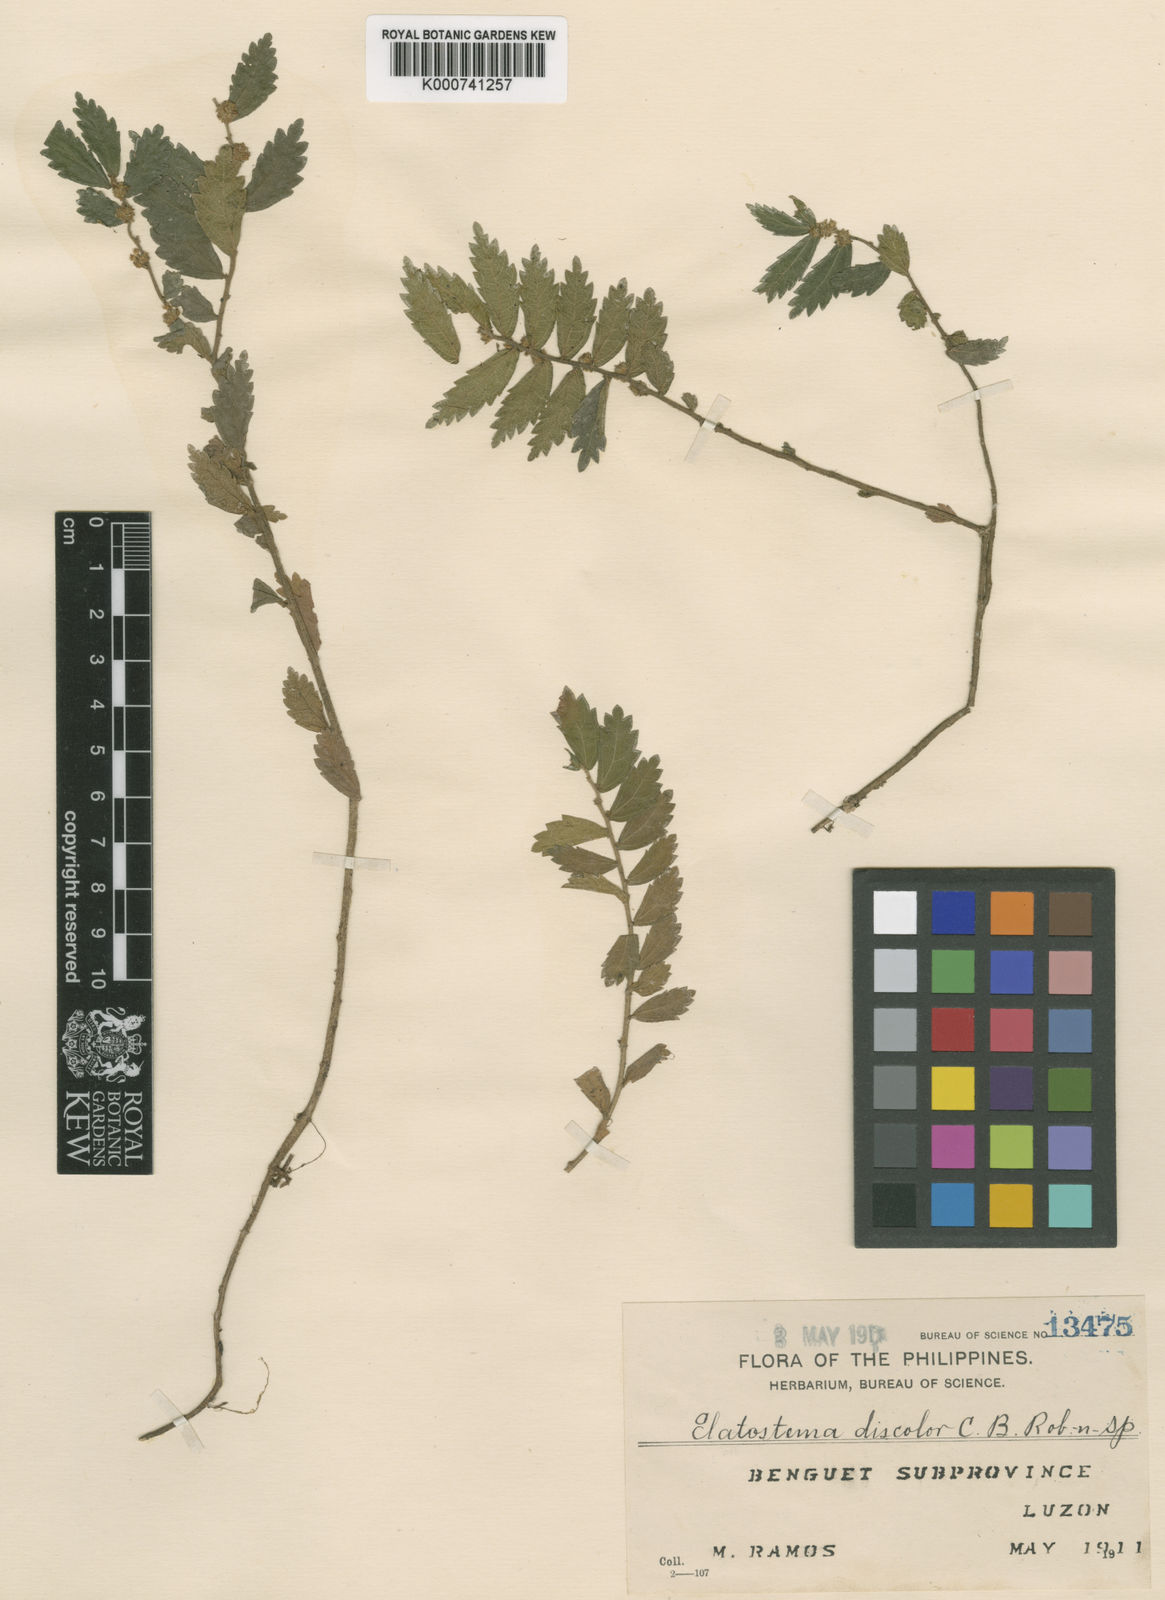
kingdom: Plantae
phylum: Tracheophyta
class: Magnoliopsida
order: Rosales
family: Urticaceae
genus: Elatostema
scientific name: Elatostema discolor
